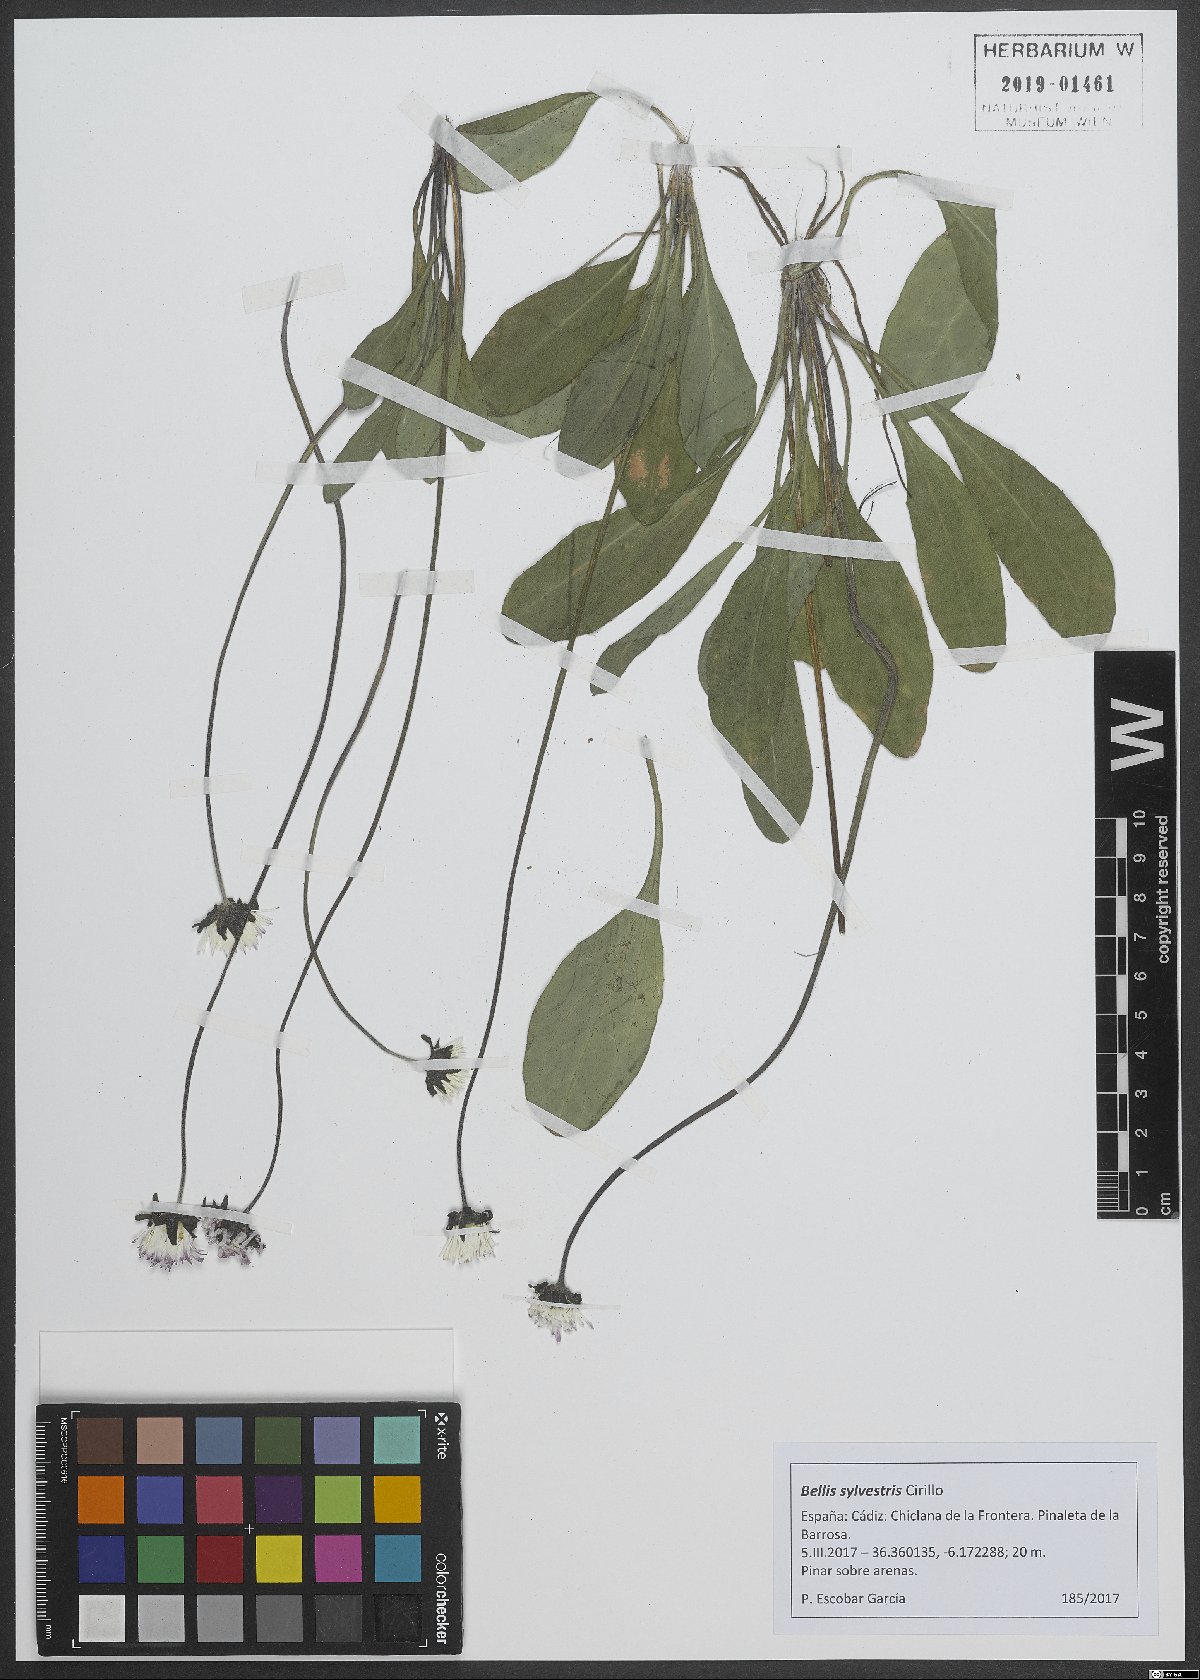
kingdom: Plantae
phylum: Tracheophyta
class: Magnoliopsida
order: Asterales
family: Asteraceae
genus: Bellis
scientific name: Bellis sylvestris
